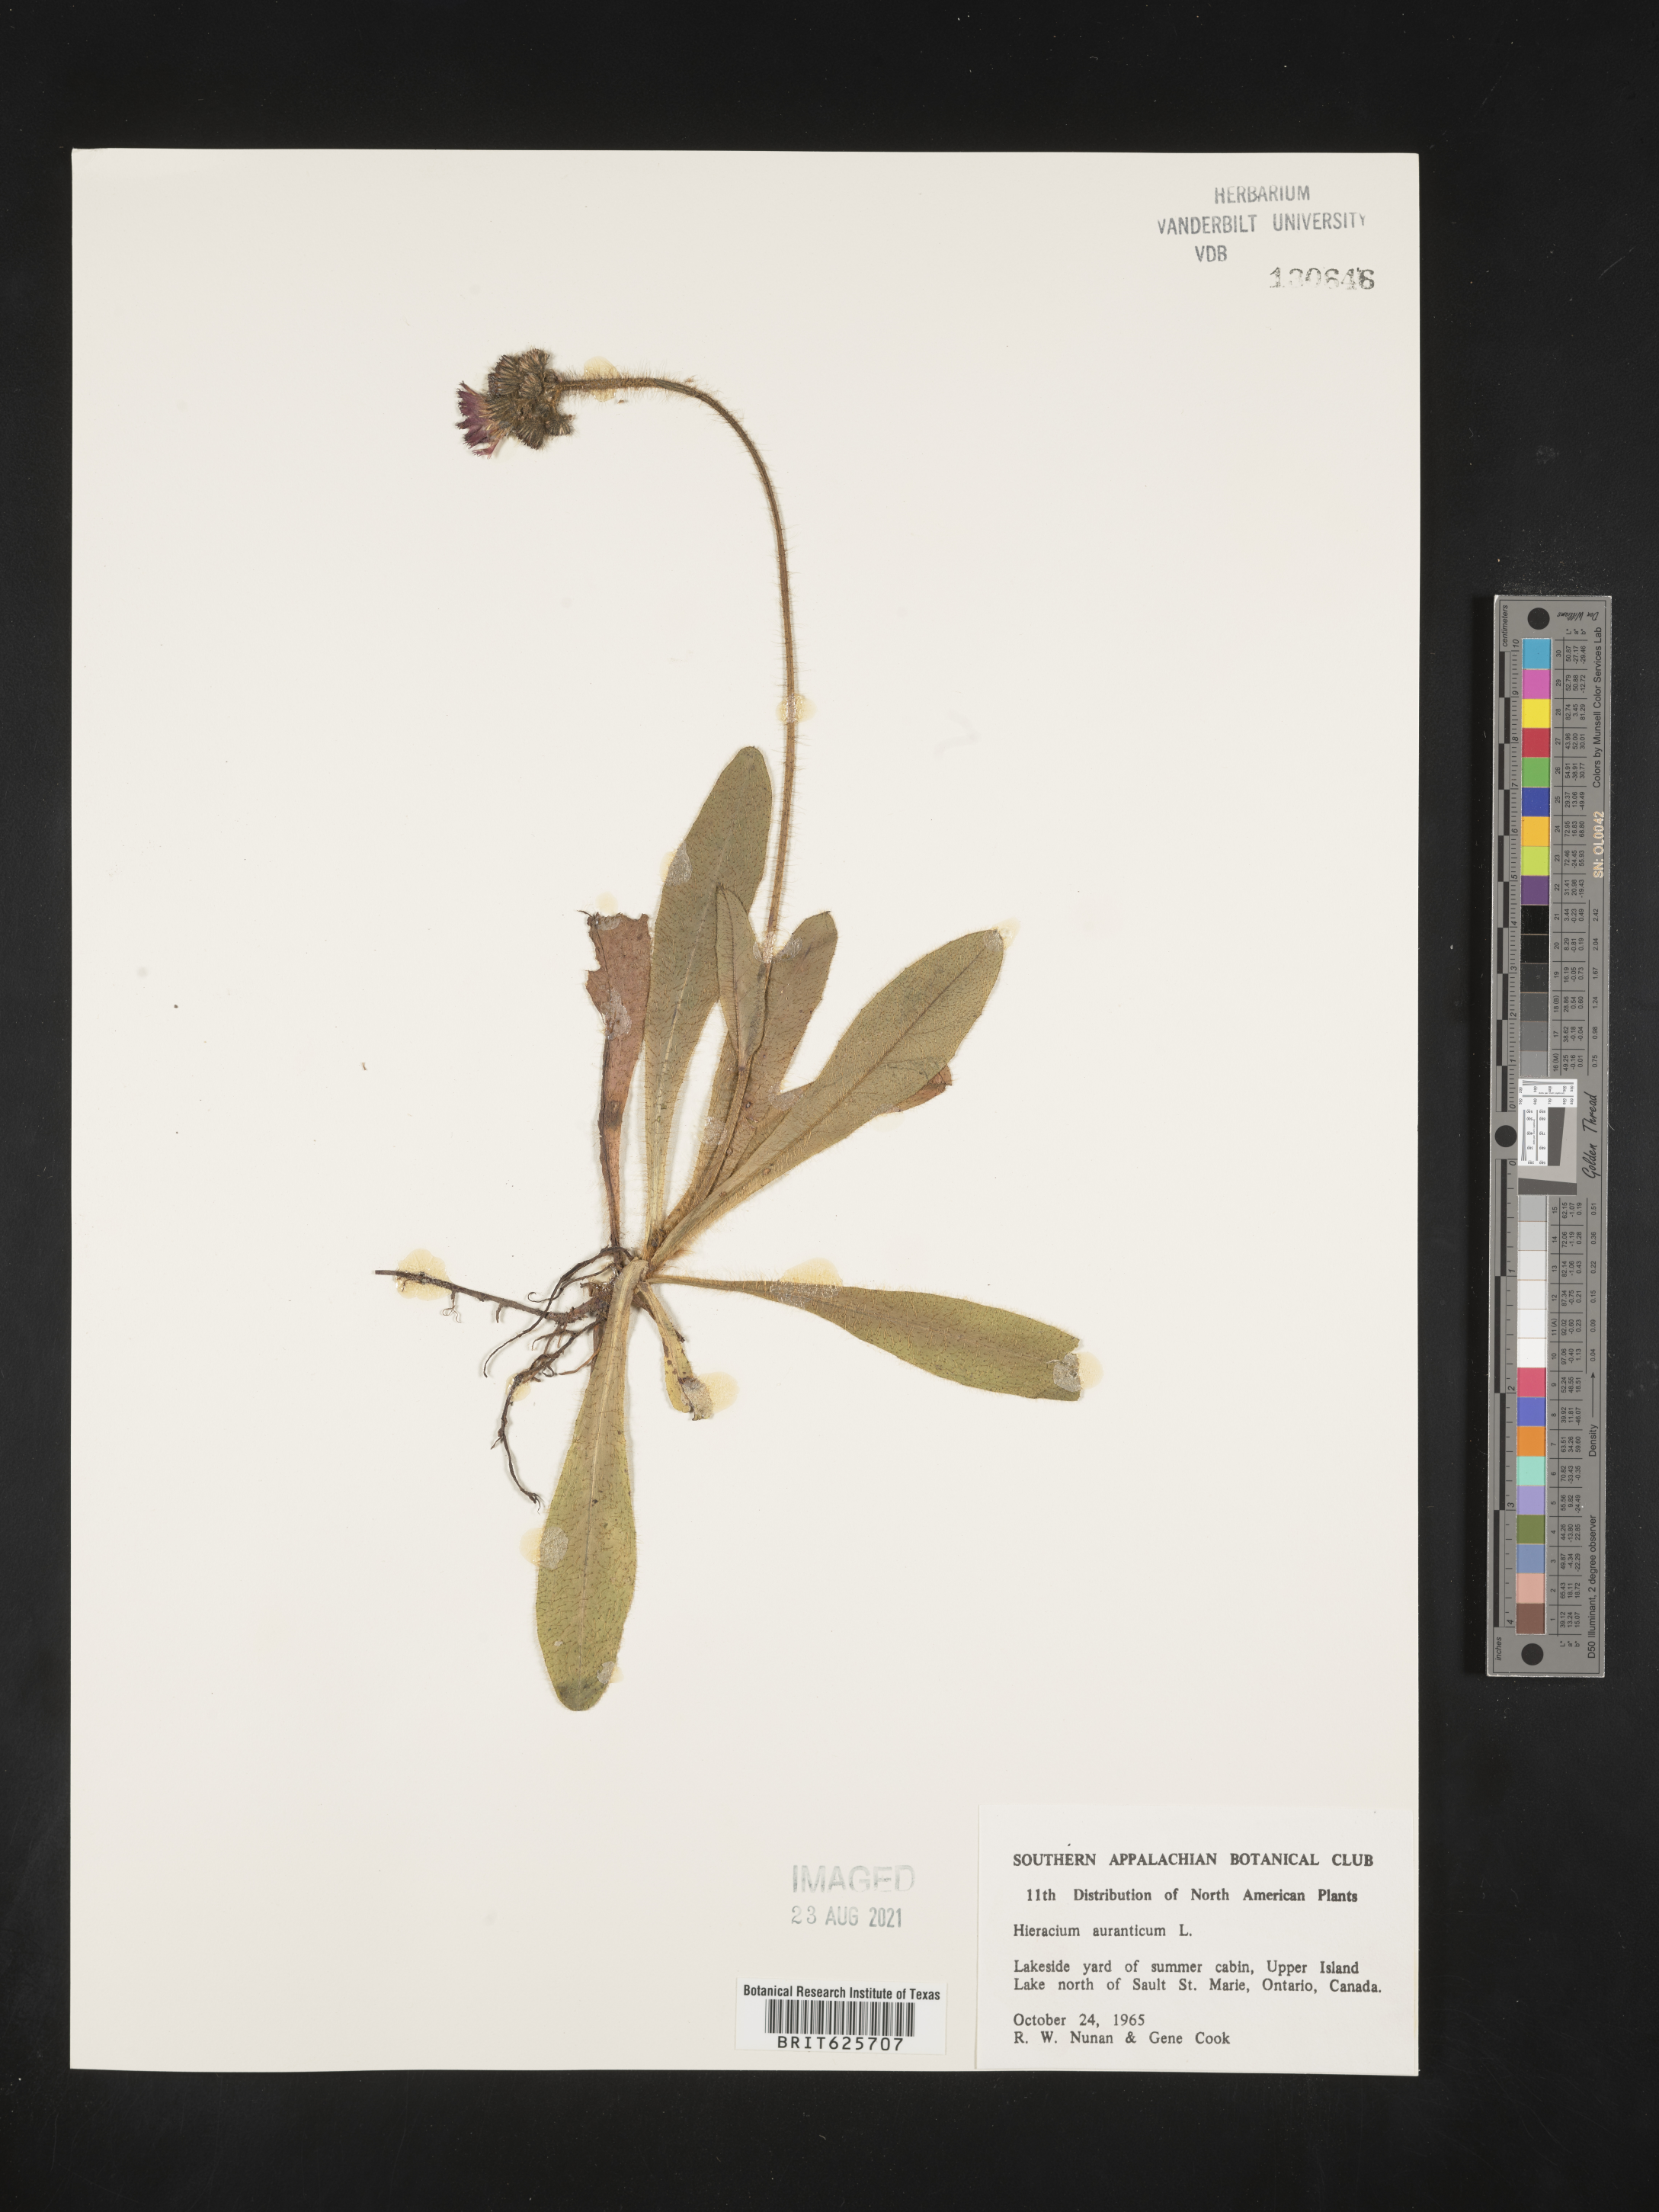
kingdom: Plantae
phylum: Tracheophyta
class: Magnoliopsida
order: Asterales
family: Asteraceae
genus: Pilosella
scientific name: Pilosella aurantiaca
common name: Fox-and-cubs
